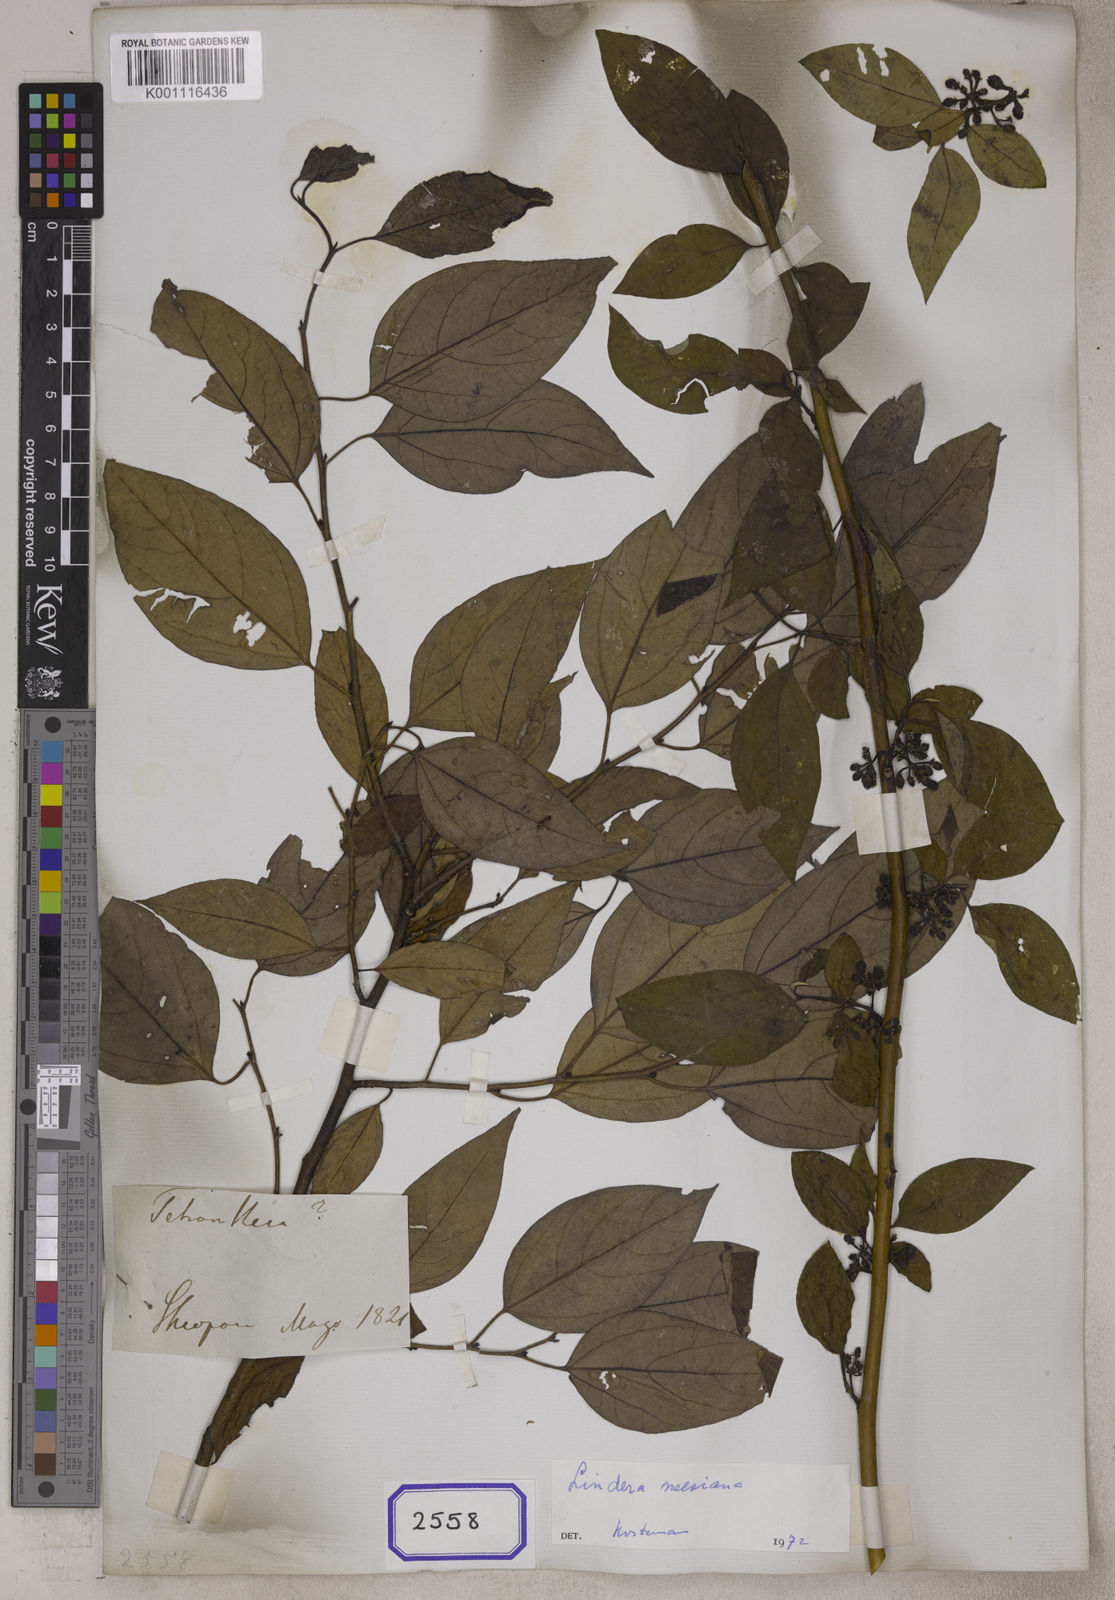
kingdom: Plantae
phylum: Tracheophyta
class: Magnoliopsida
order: Laurales
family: Lauraceae
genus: Lindera
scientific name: Lindera neesiana
